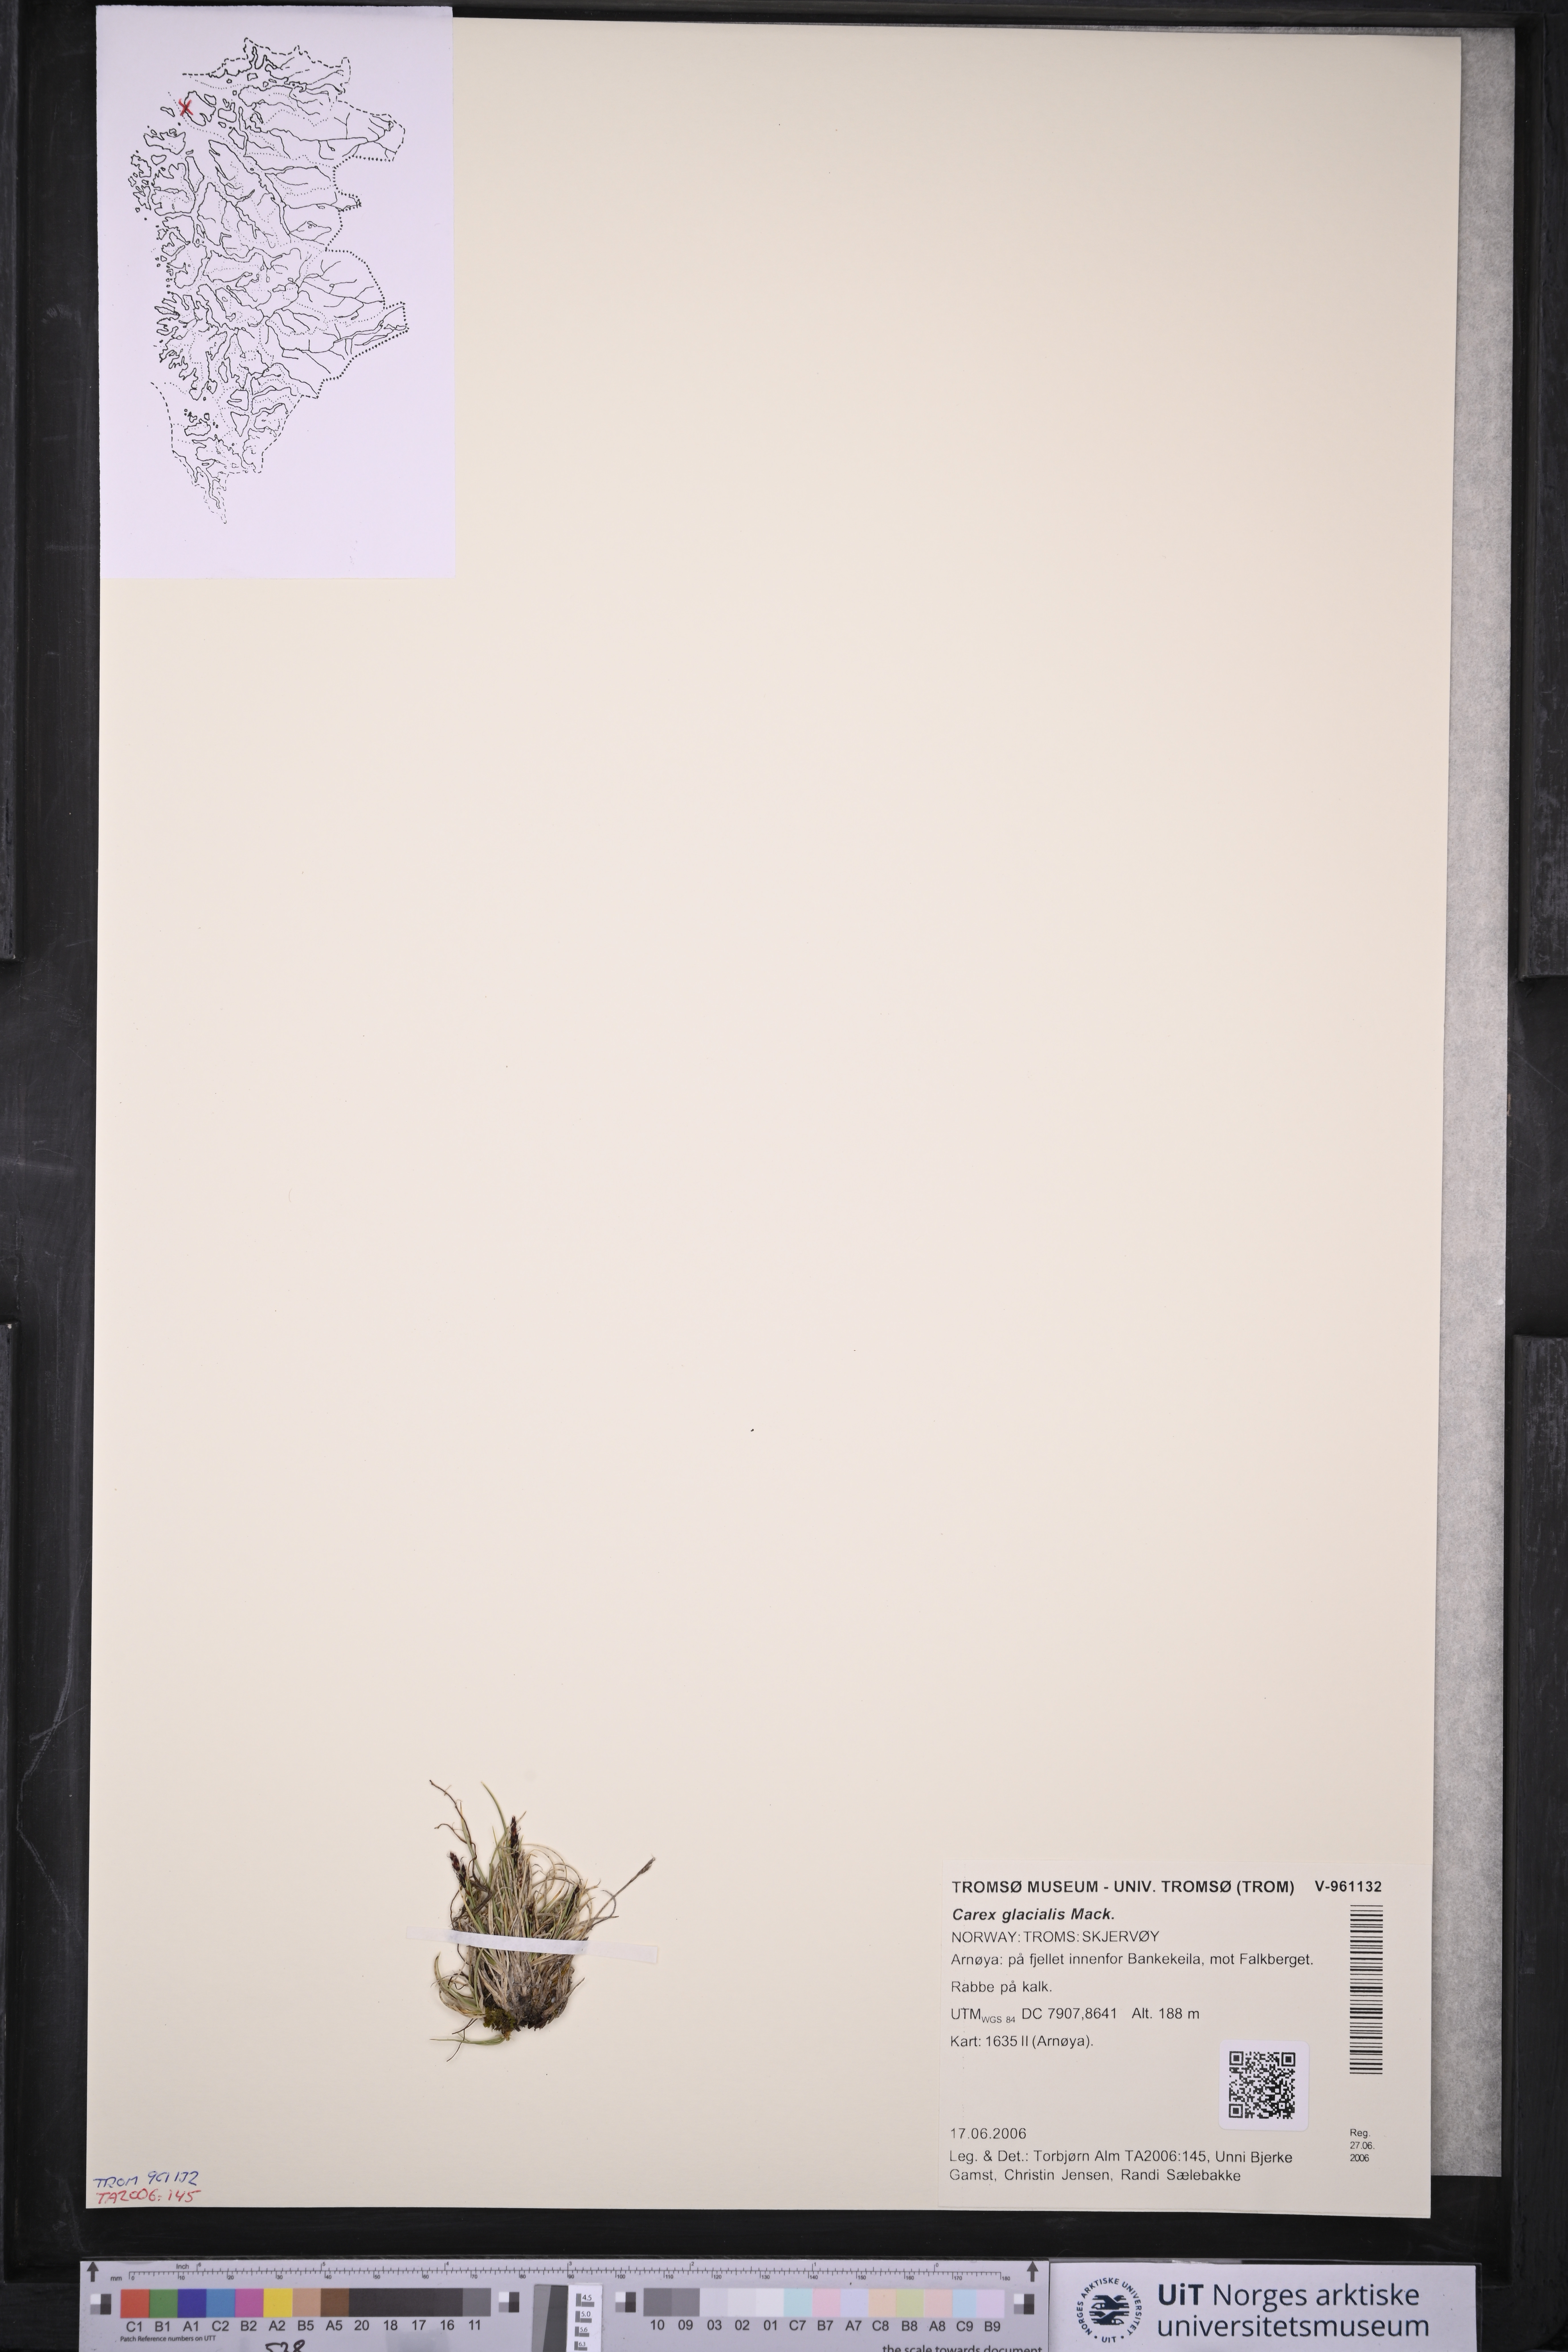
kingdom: Plantae
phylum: Tracheophyta
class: Liliopsida
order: Poales
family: Cyperaceae
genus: Carex
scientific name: Carex glacialis
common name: Newfoundland sedge
